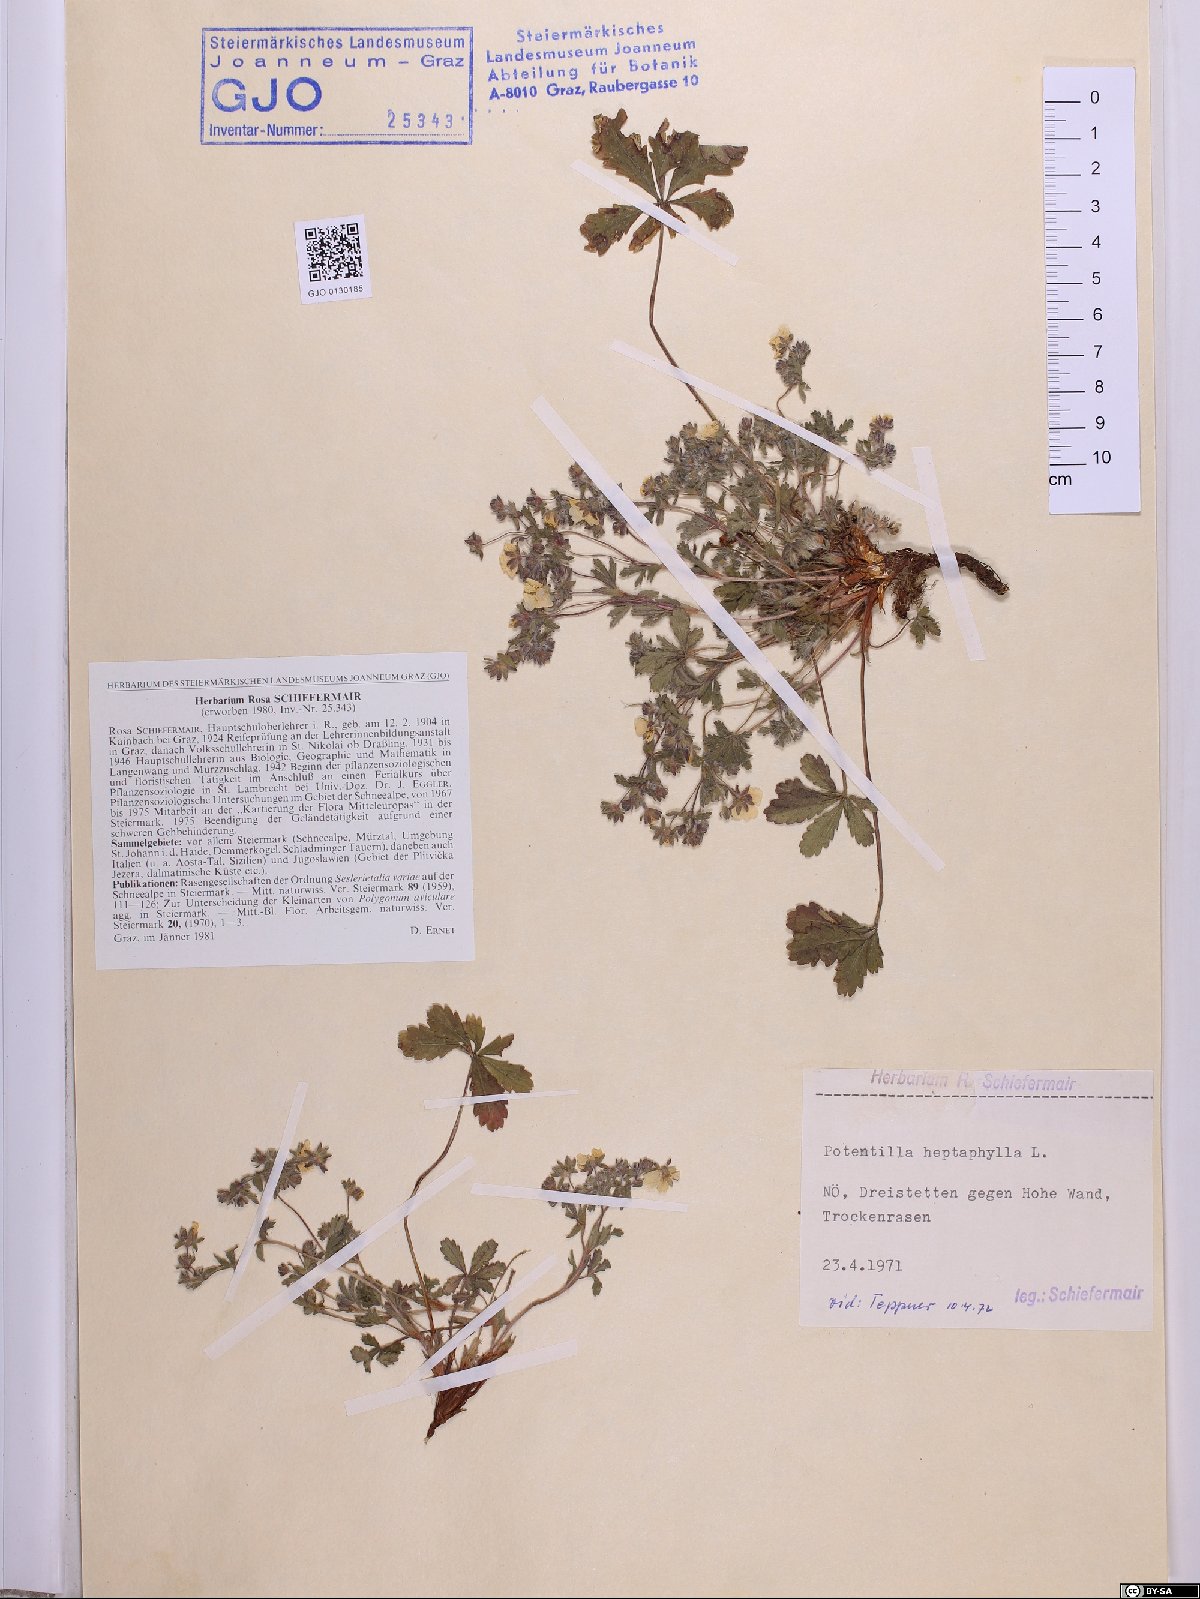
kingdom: Plantae
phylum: Tracheophyta
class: Magnoliopsida
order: Rosales
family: Rosaceae
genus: Potentilla
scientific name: Potentilla heptaphylla
